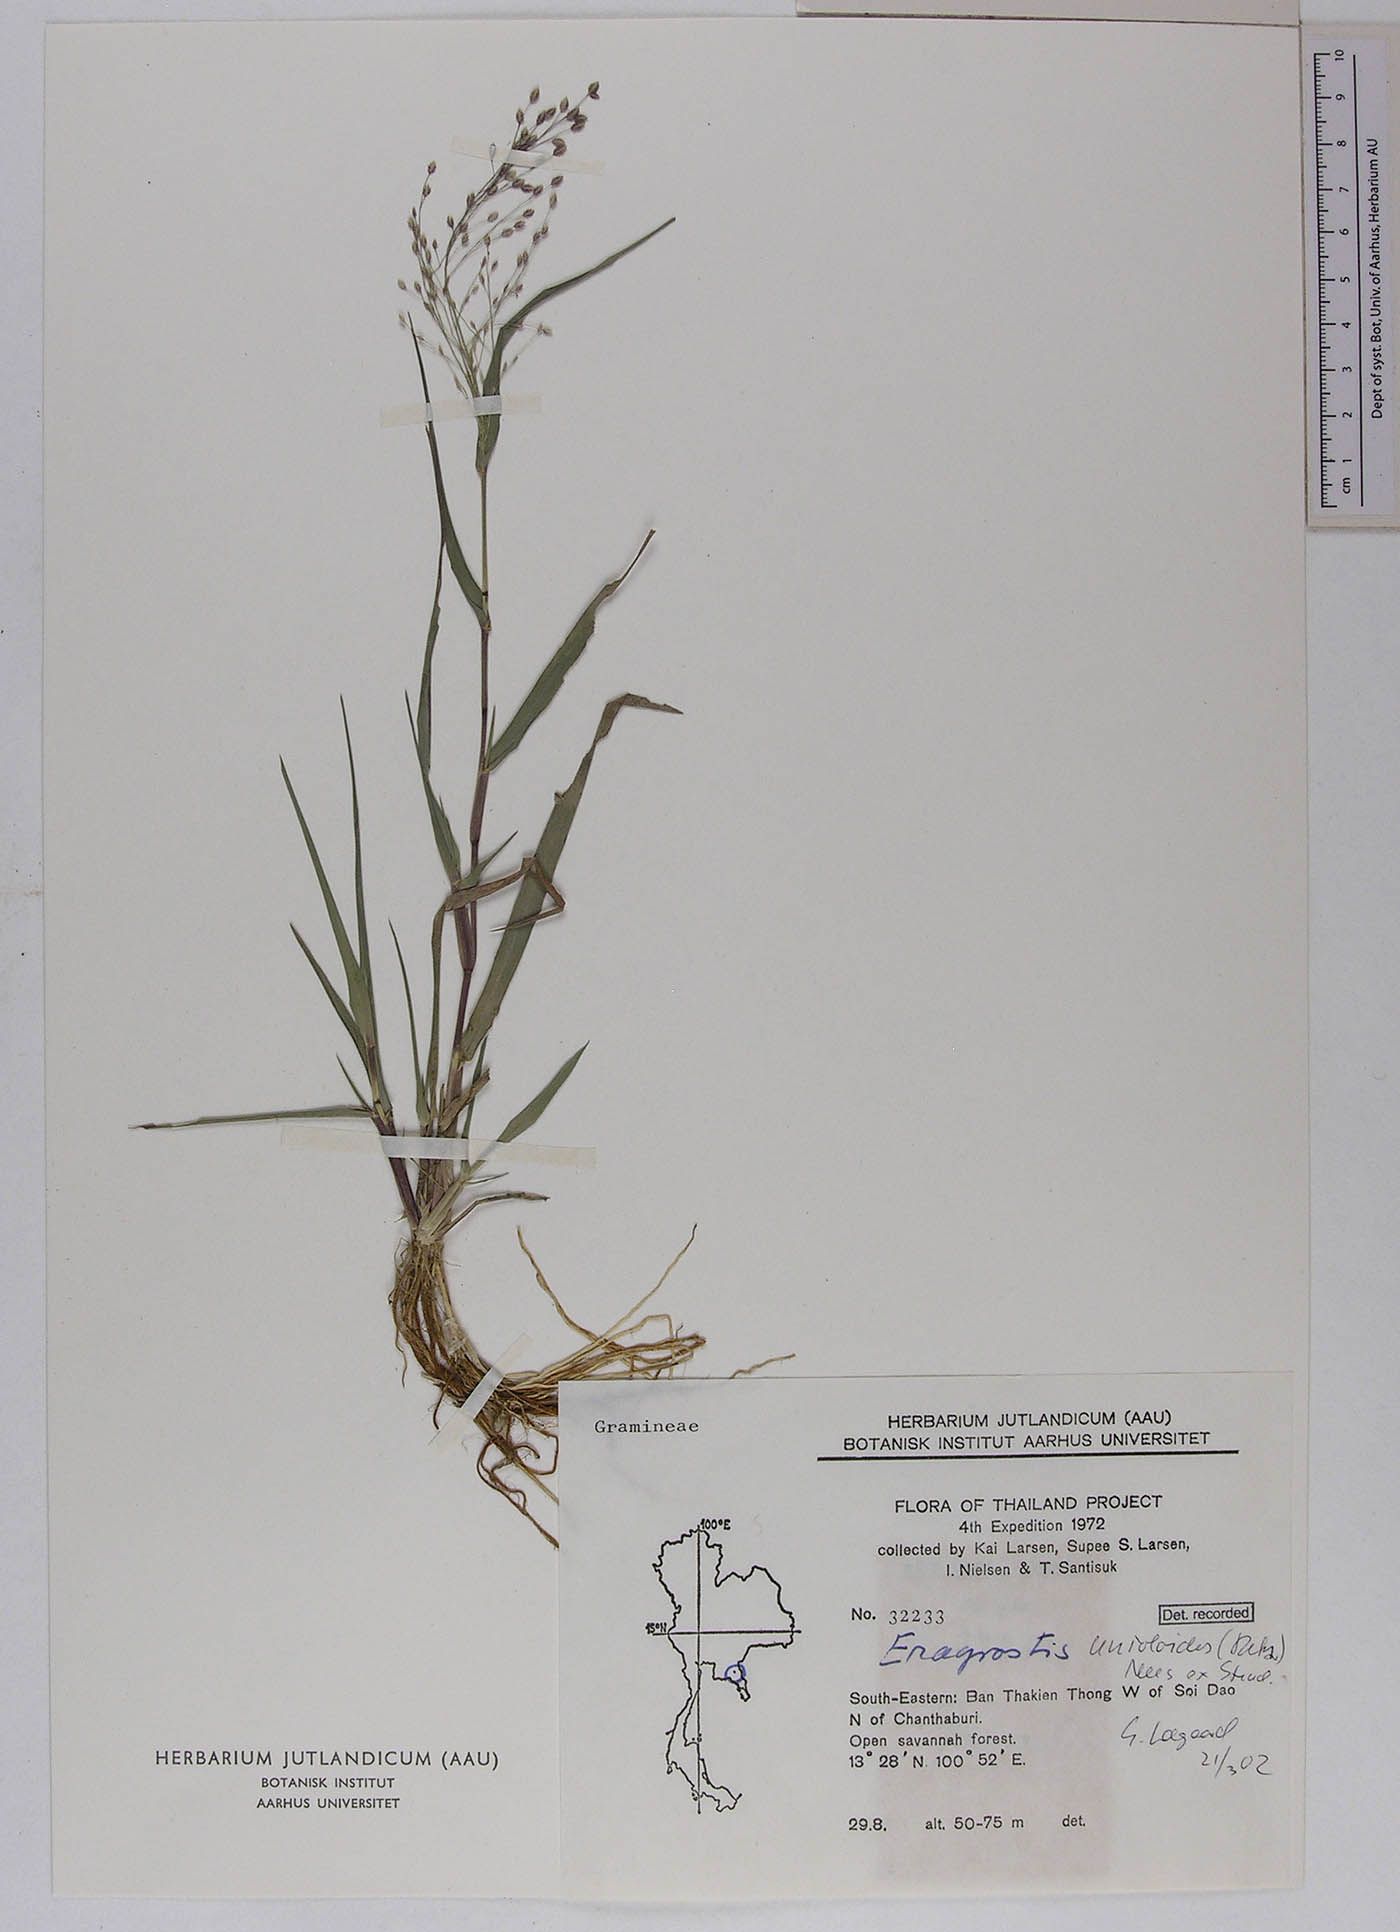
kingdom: Plantae
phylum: Tracheophyta
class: Liliopsida
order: Poales
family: Poaceae
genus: Eragrostis
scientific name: Eragrostis unioloides
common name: Chinese lovegrass
